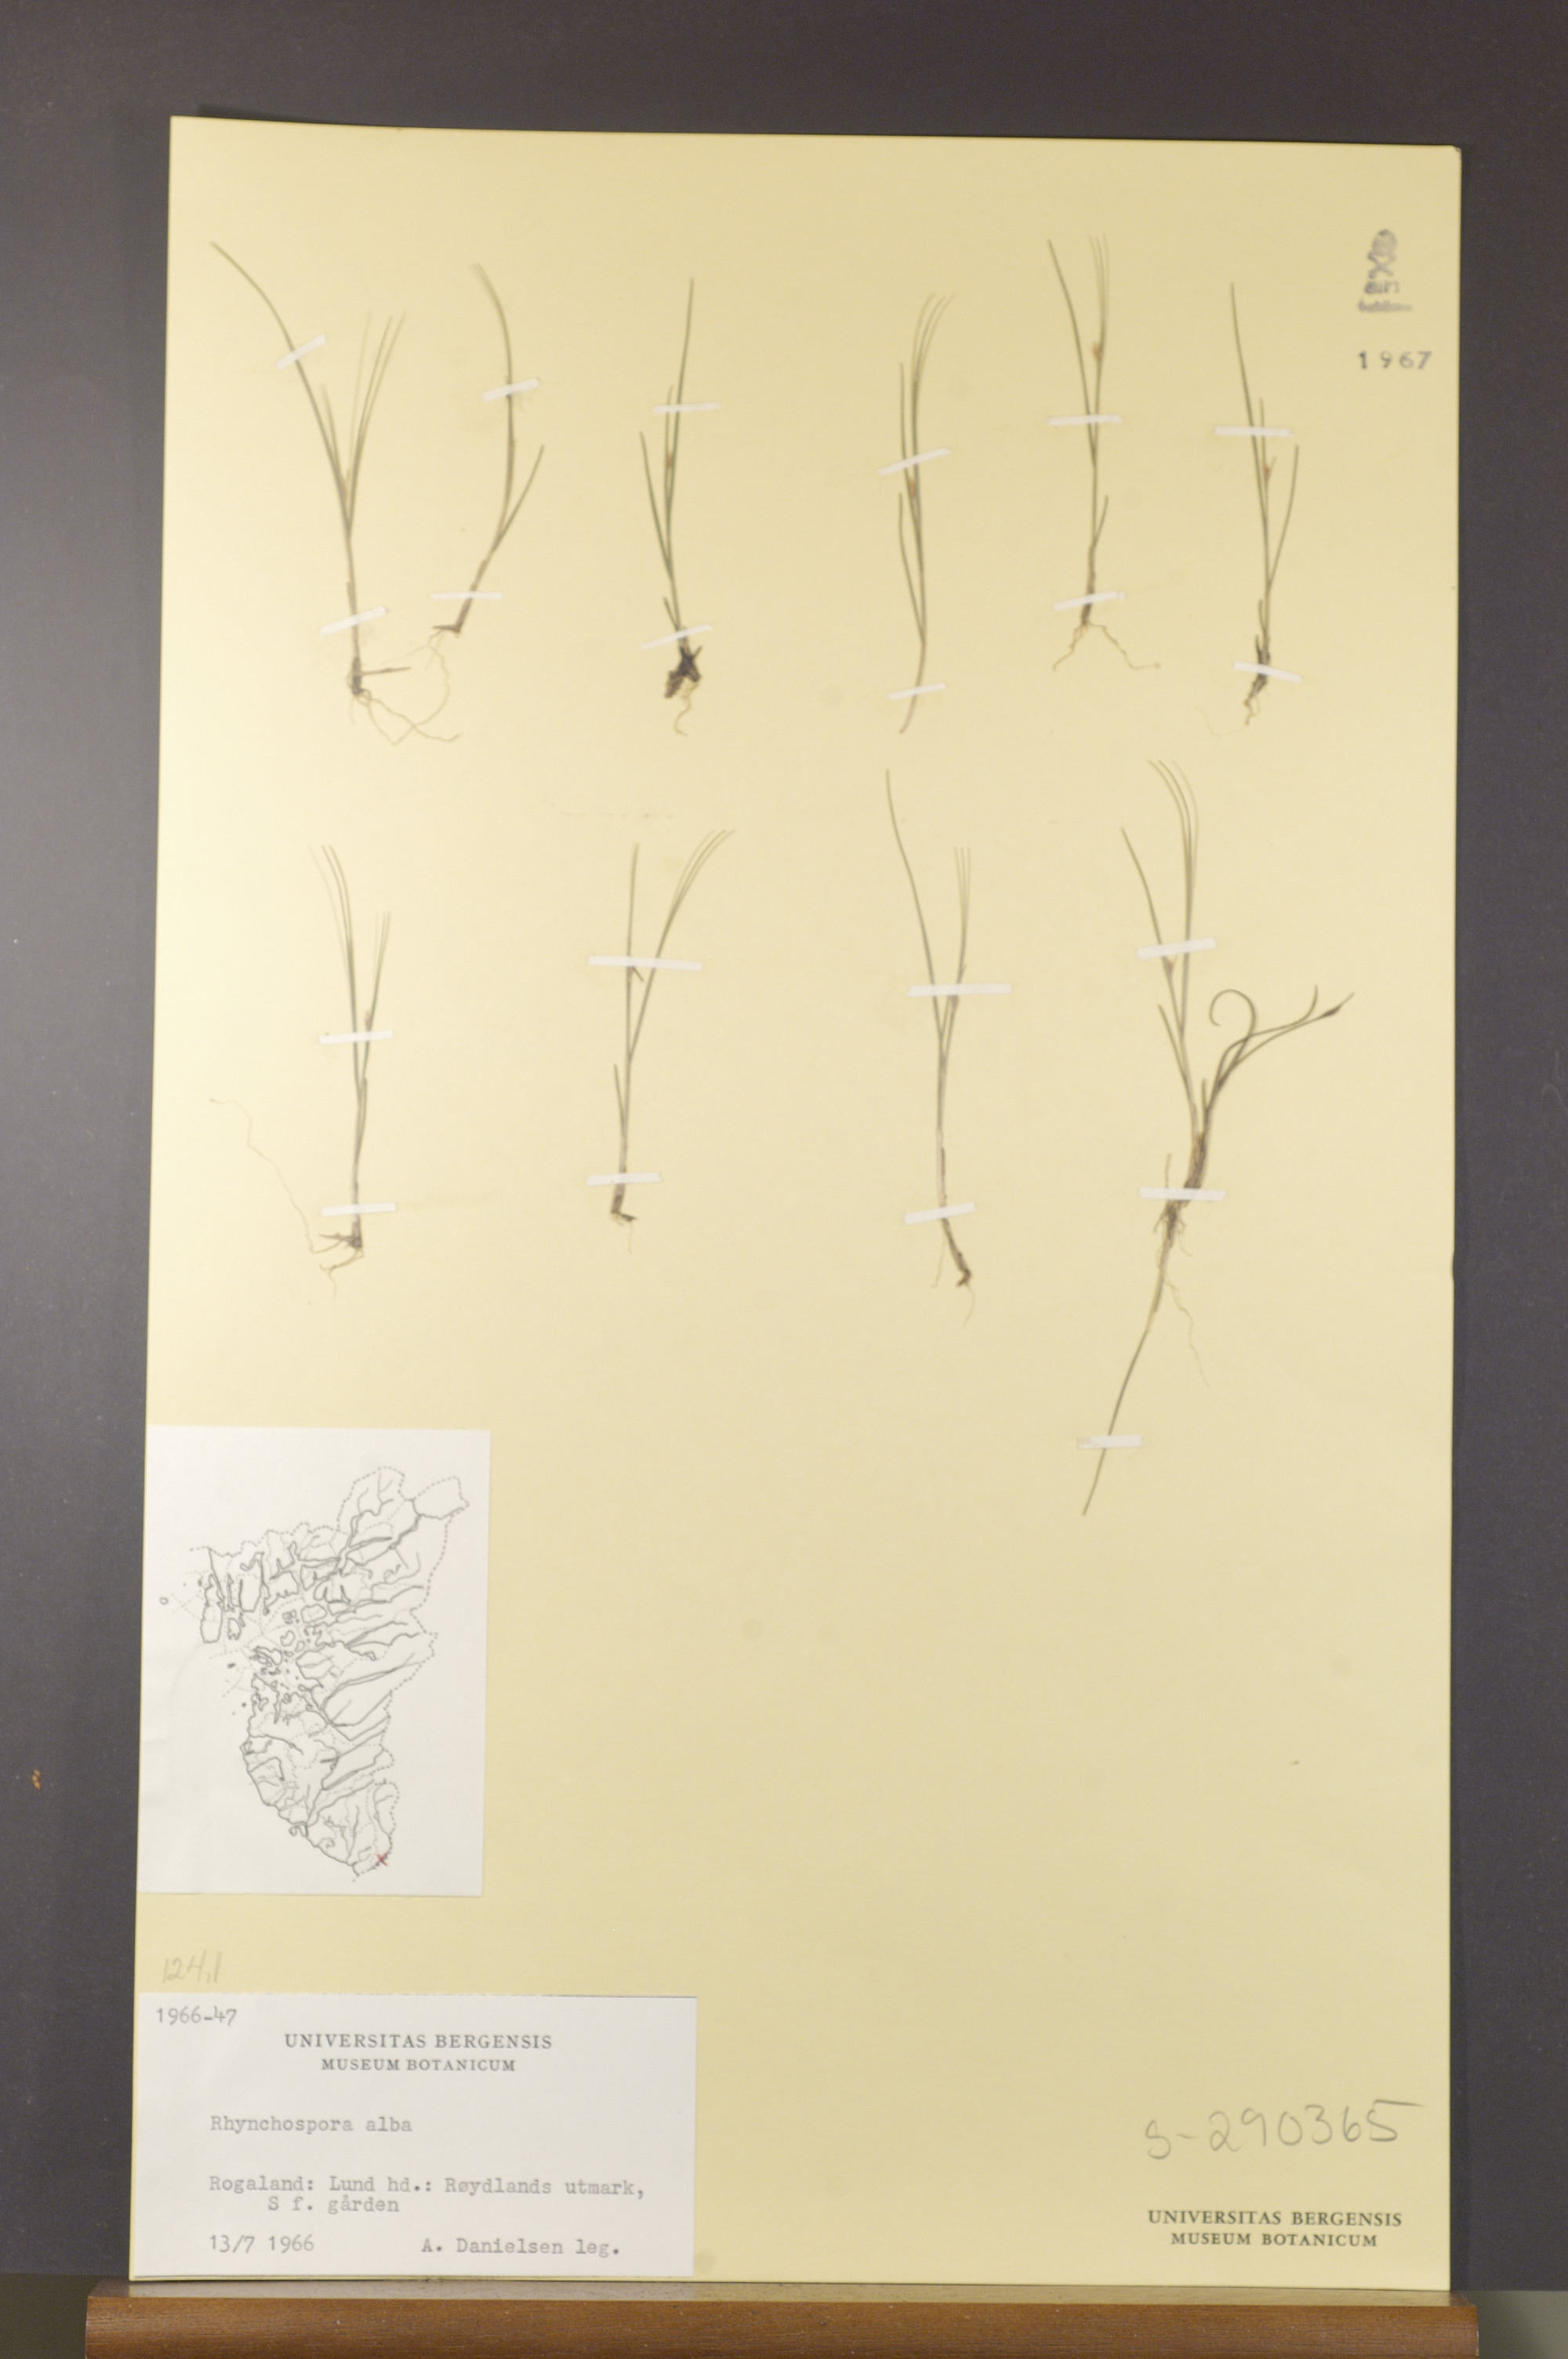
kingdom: Plantae
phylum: Tracheophyta
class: Liliopsida
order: Poales
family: Cyperaceae
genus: Rhynchospora
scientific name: Rhynchospora alba
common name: White beak-sedge
